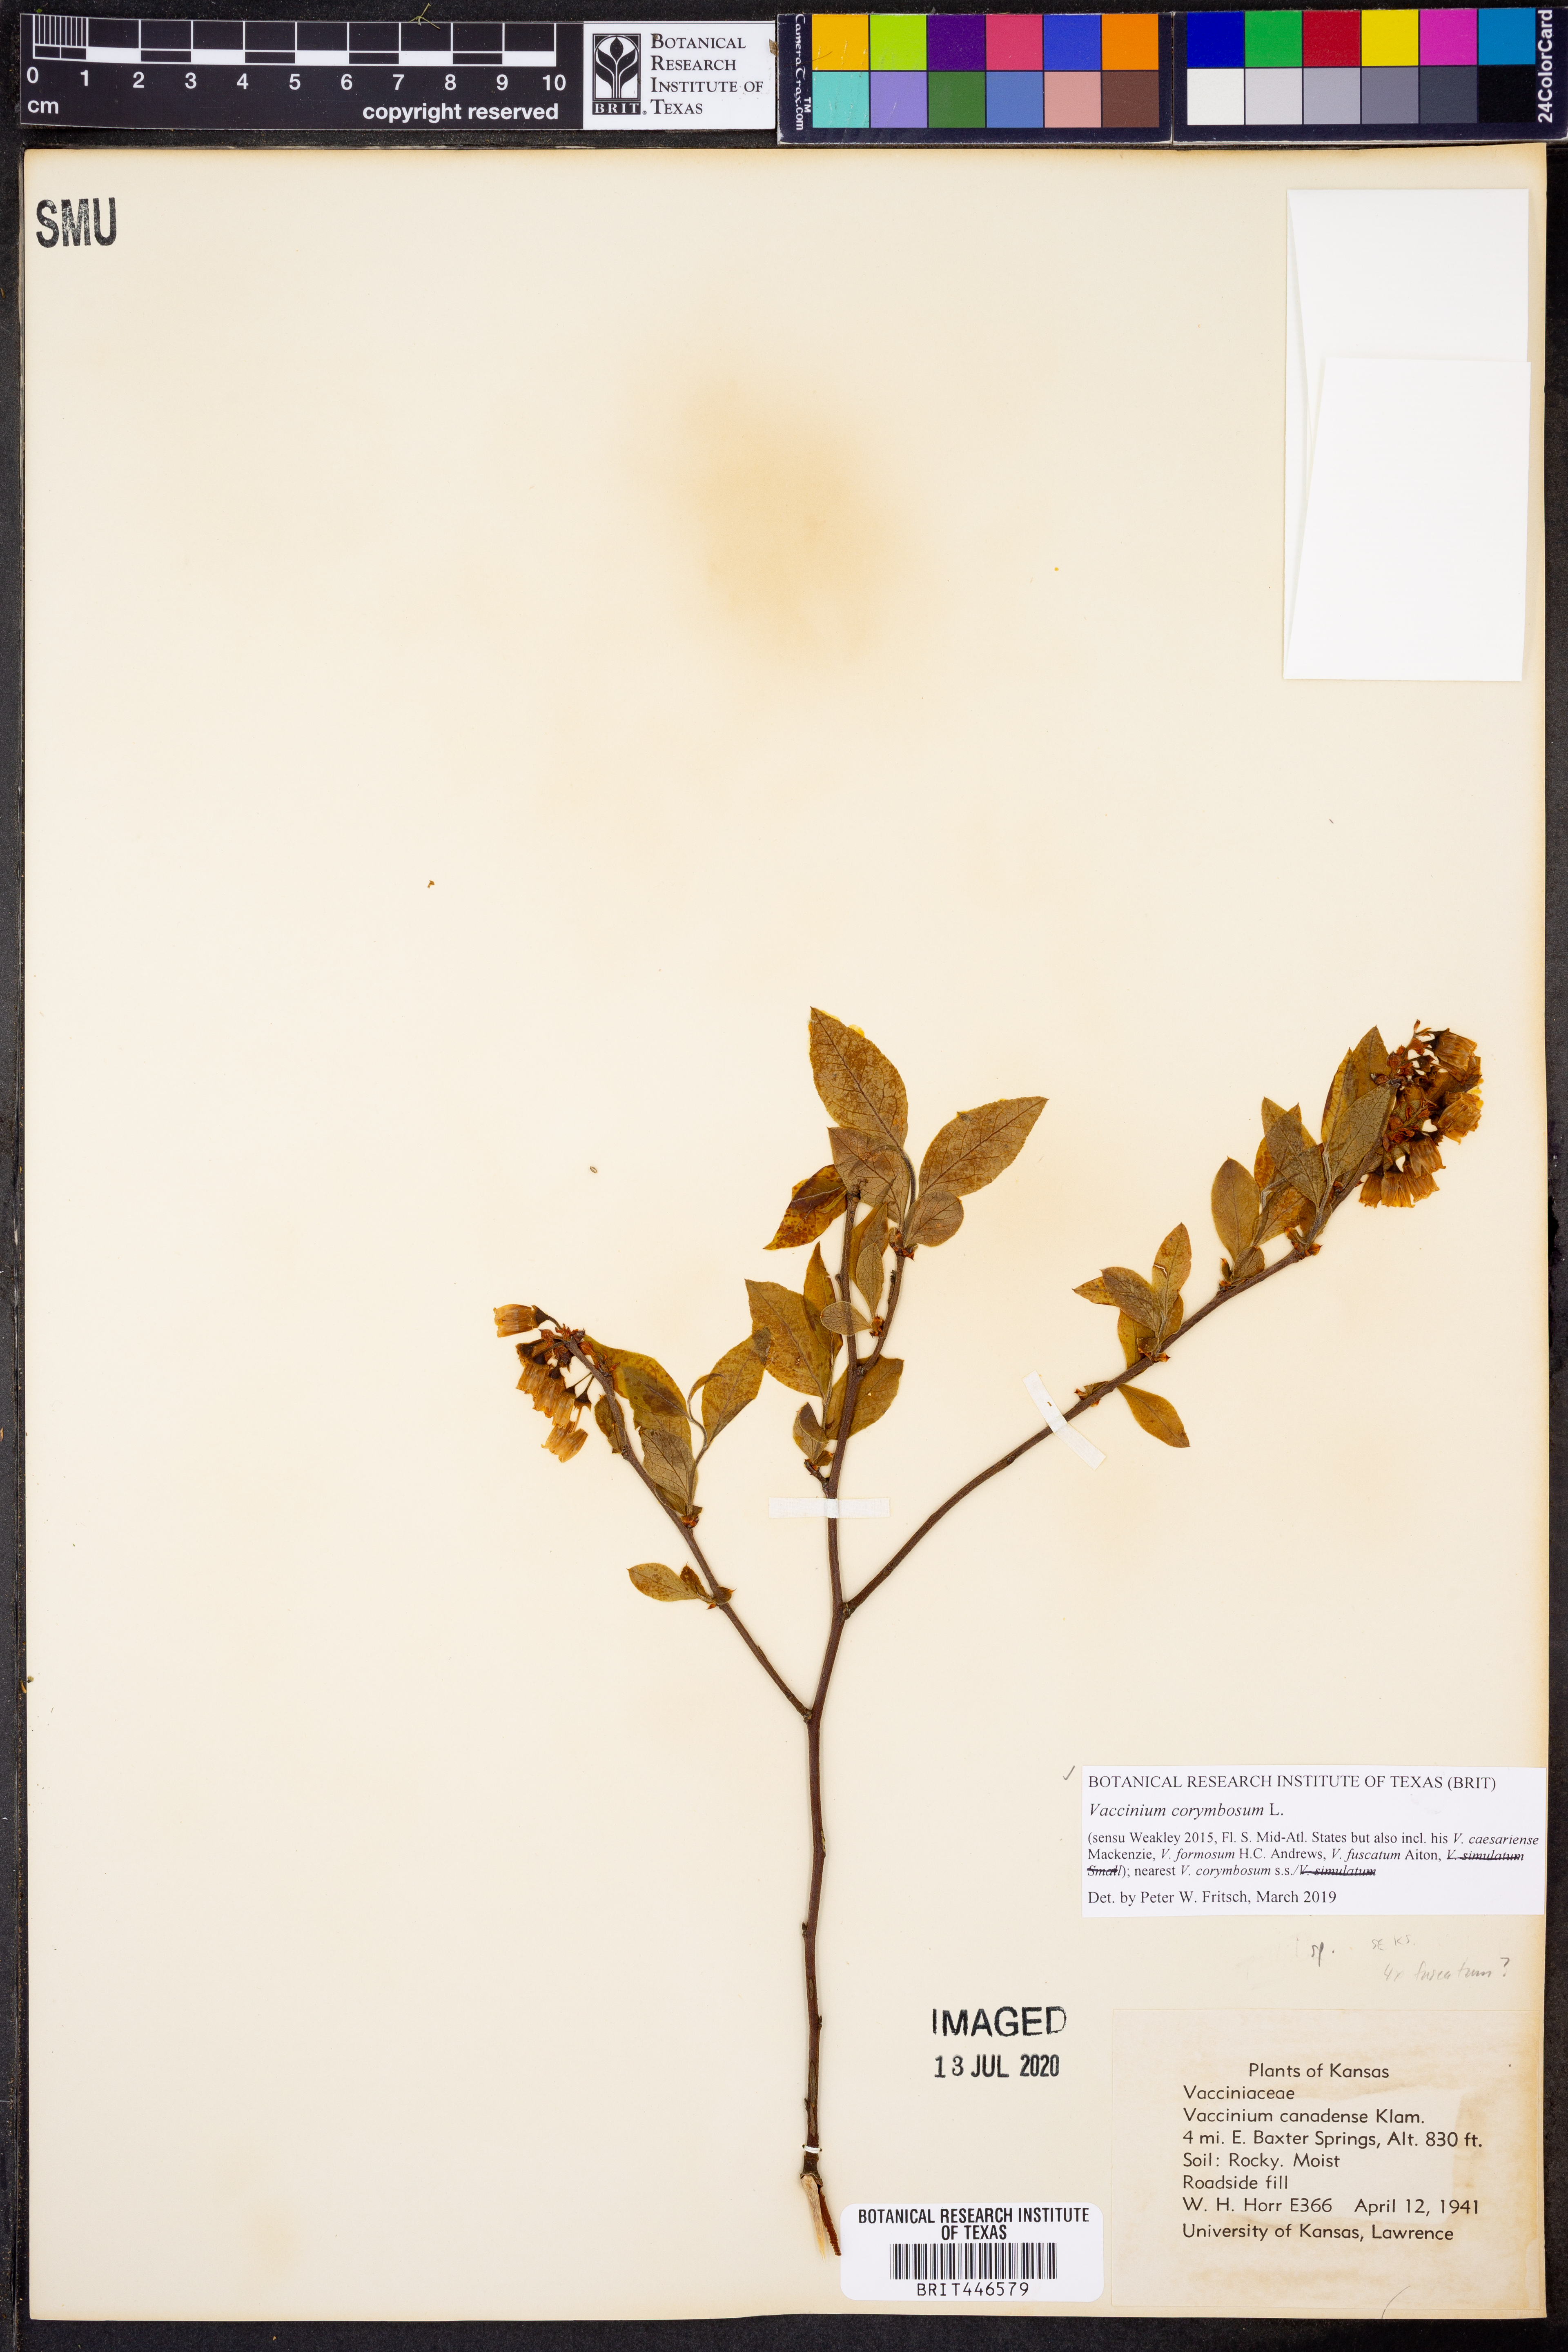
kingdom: Plantae
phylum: Tracheophyta
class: Magnoliopsida
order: Ericales
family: Ericaceae
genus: Vaccinium
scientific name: Vaccinium pallidum
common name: Blue ridge blueberry
